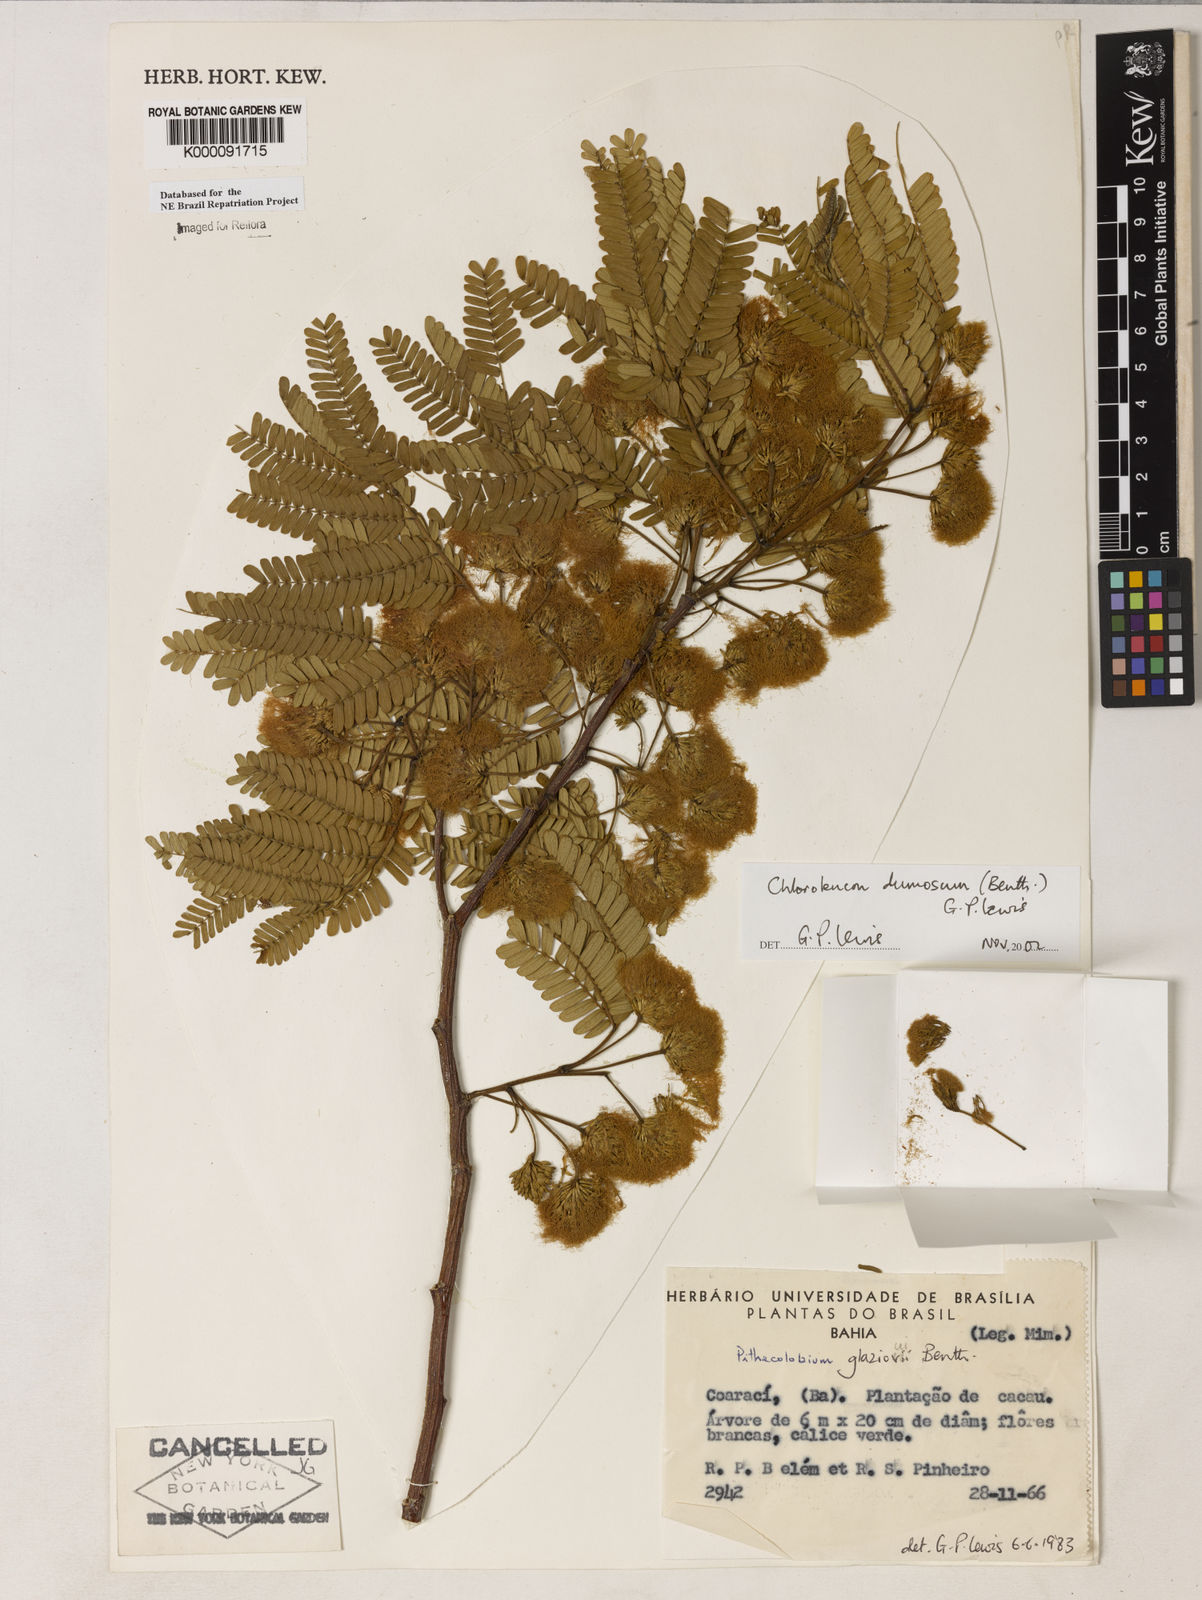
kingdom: Plantae
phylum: Tracheophyta
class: Magnoliopsida
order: Fabales
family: Fabaceae
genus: Chloroleucon
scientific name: Chloroleucon dumosum
